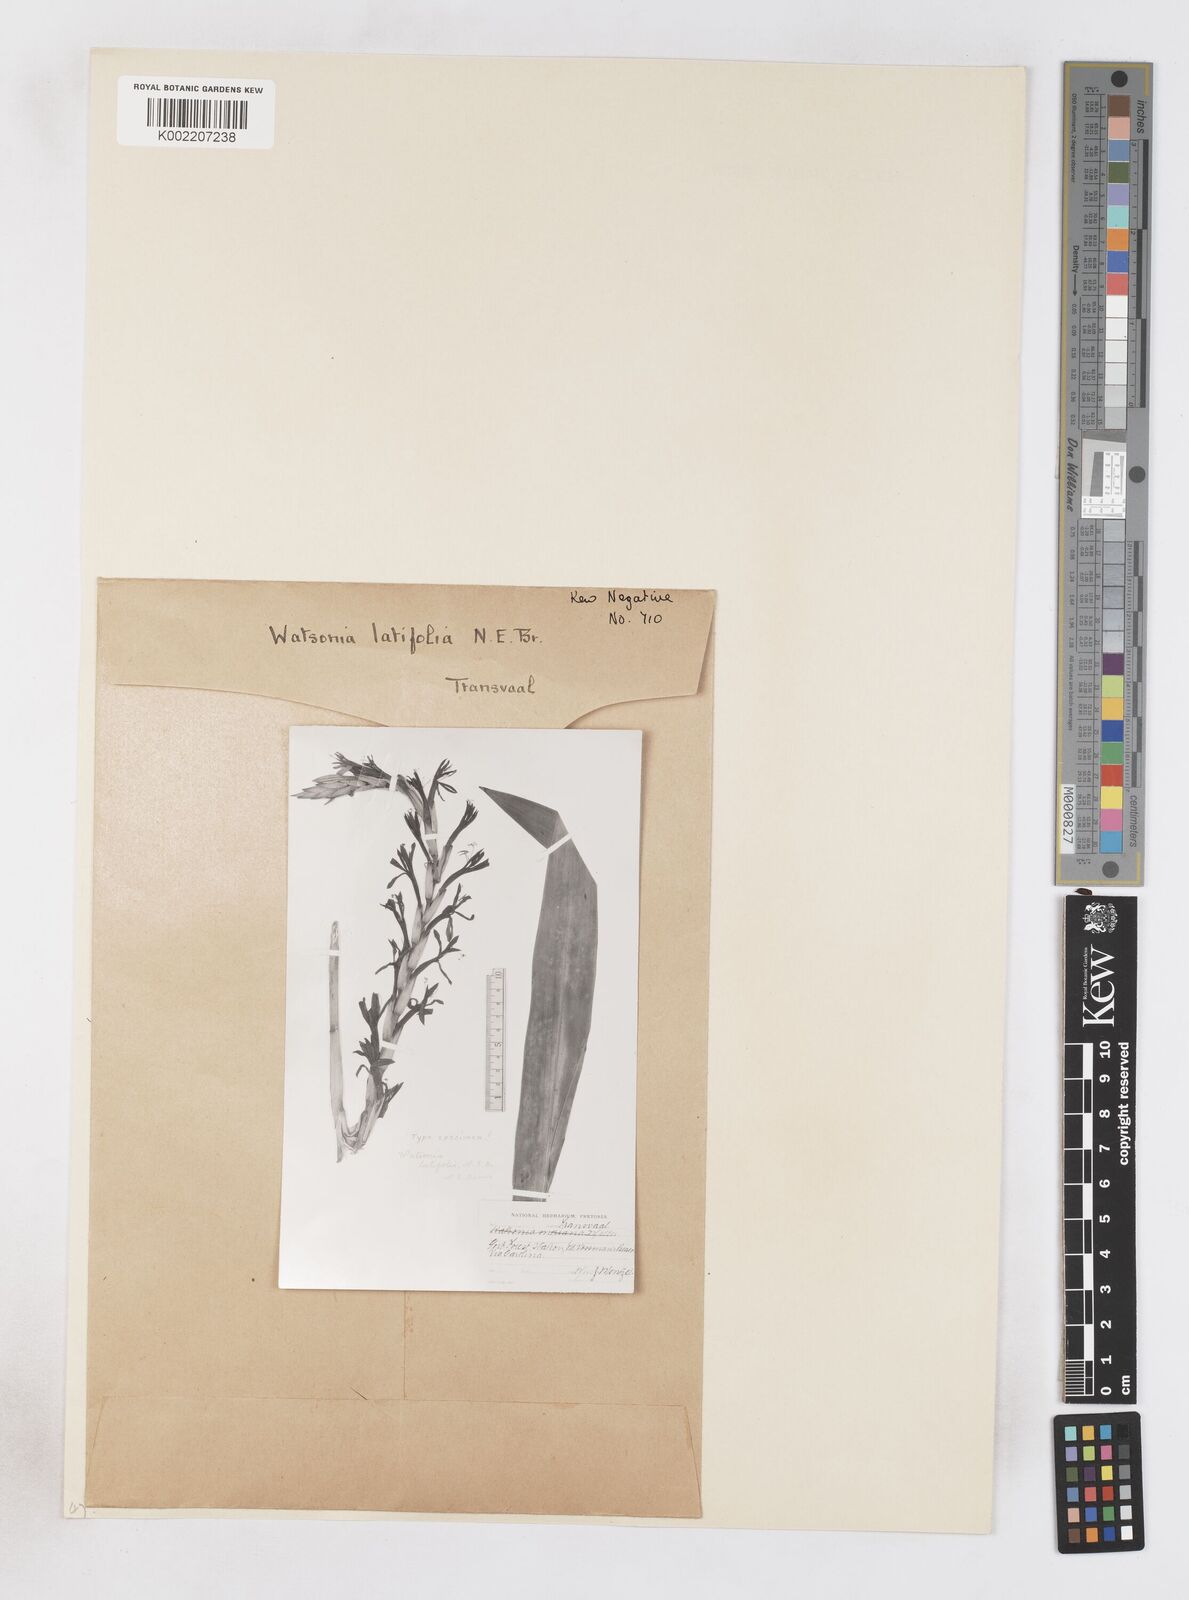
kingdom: Plantae
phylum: Tracheophyta
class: Liliopsida
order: Asparagales
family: Iridaceae
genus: Watsonia
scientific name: Watsonia latifolia
